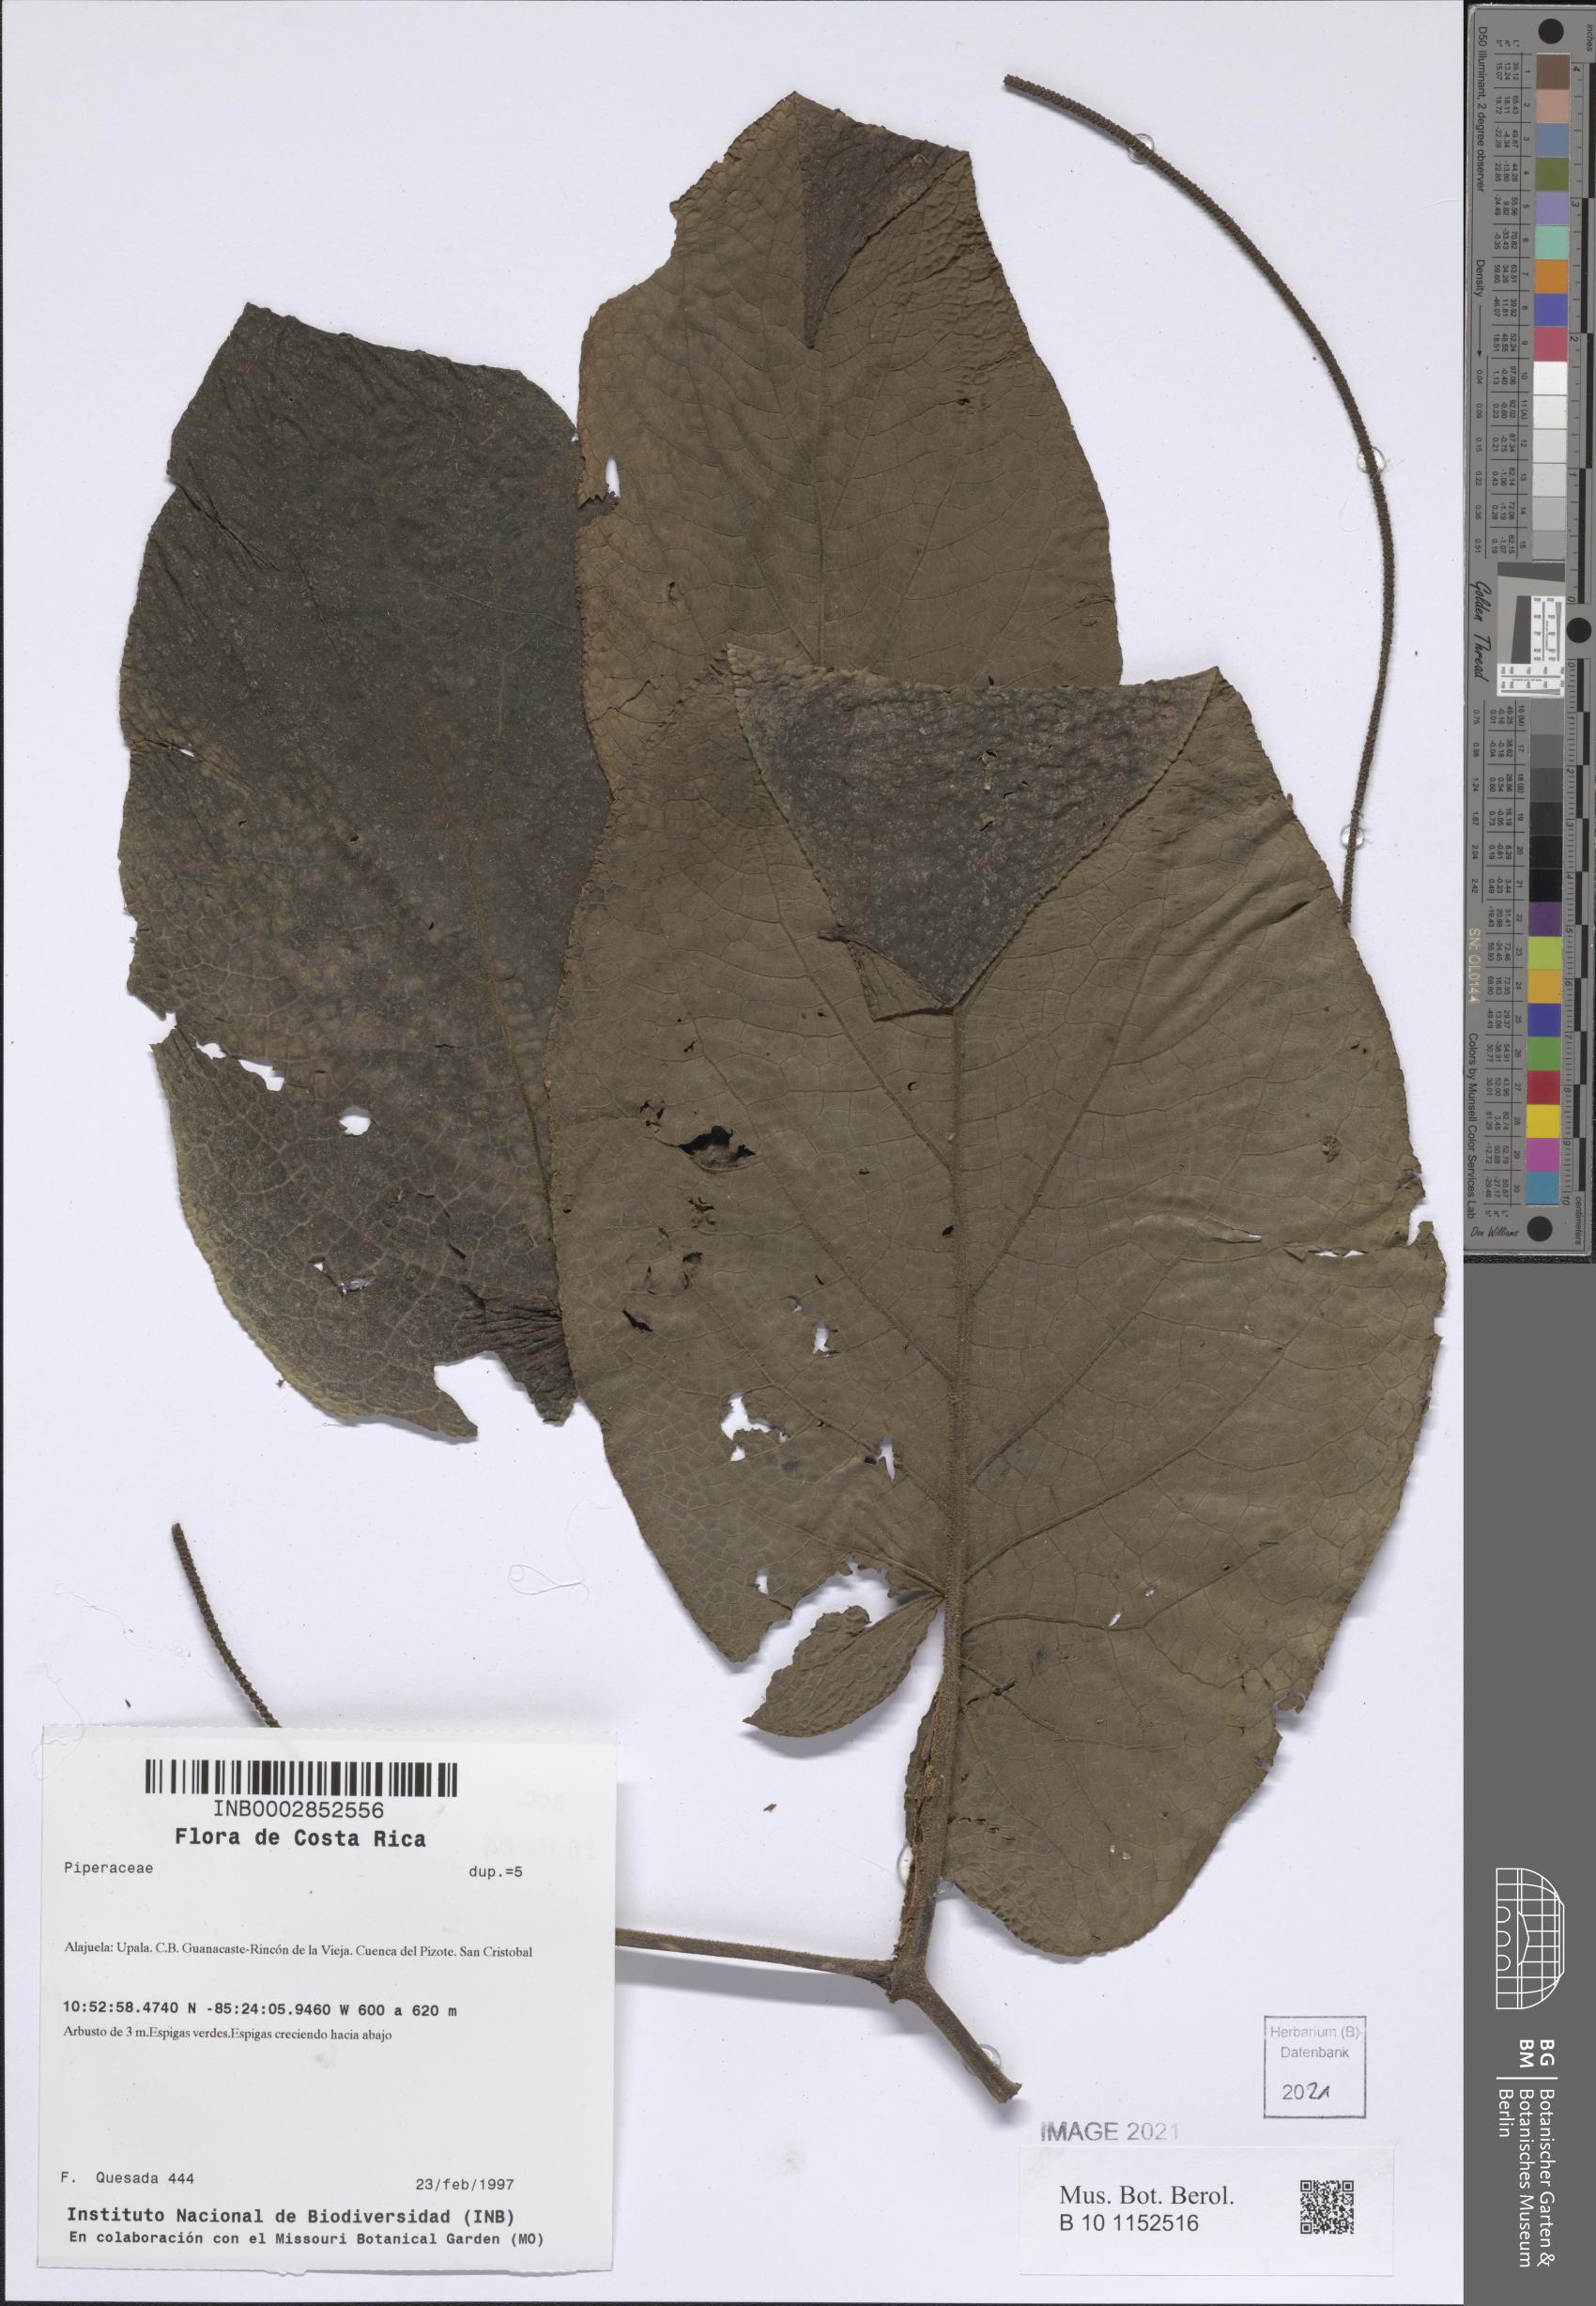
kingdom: Plantae
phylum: Tracheophyta
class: Magnoliopsida
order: Piperales
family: Piperaceae
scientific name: Piperaceae
